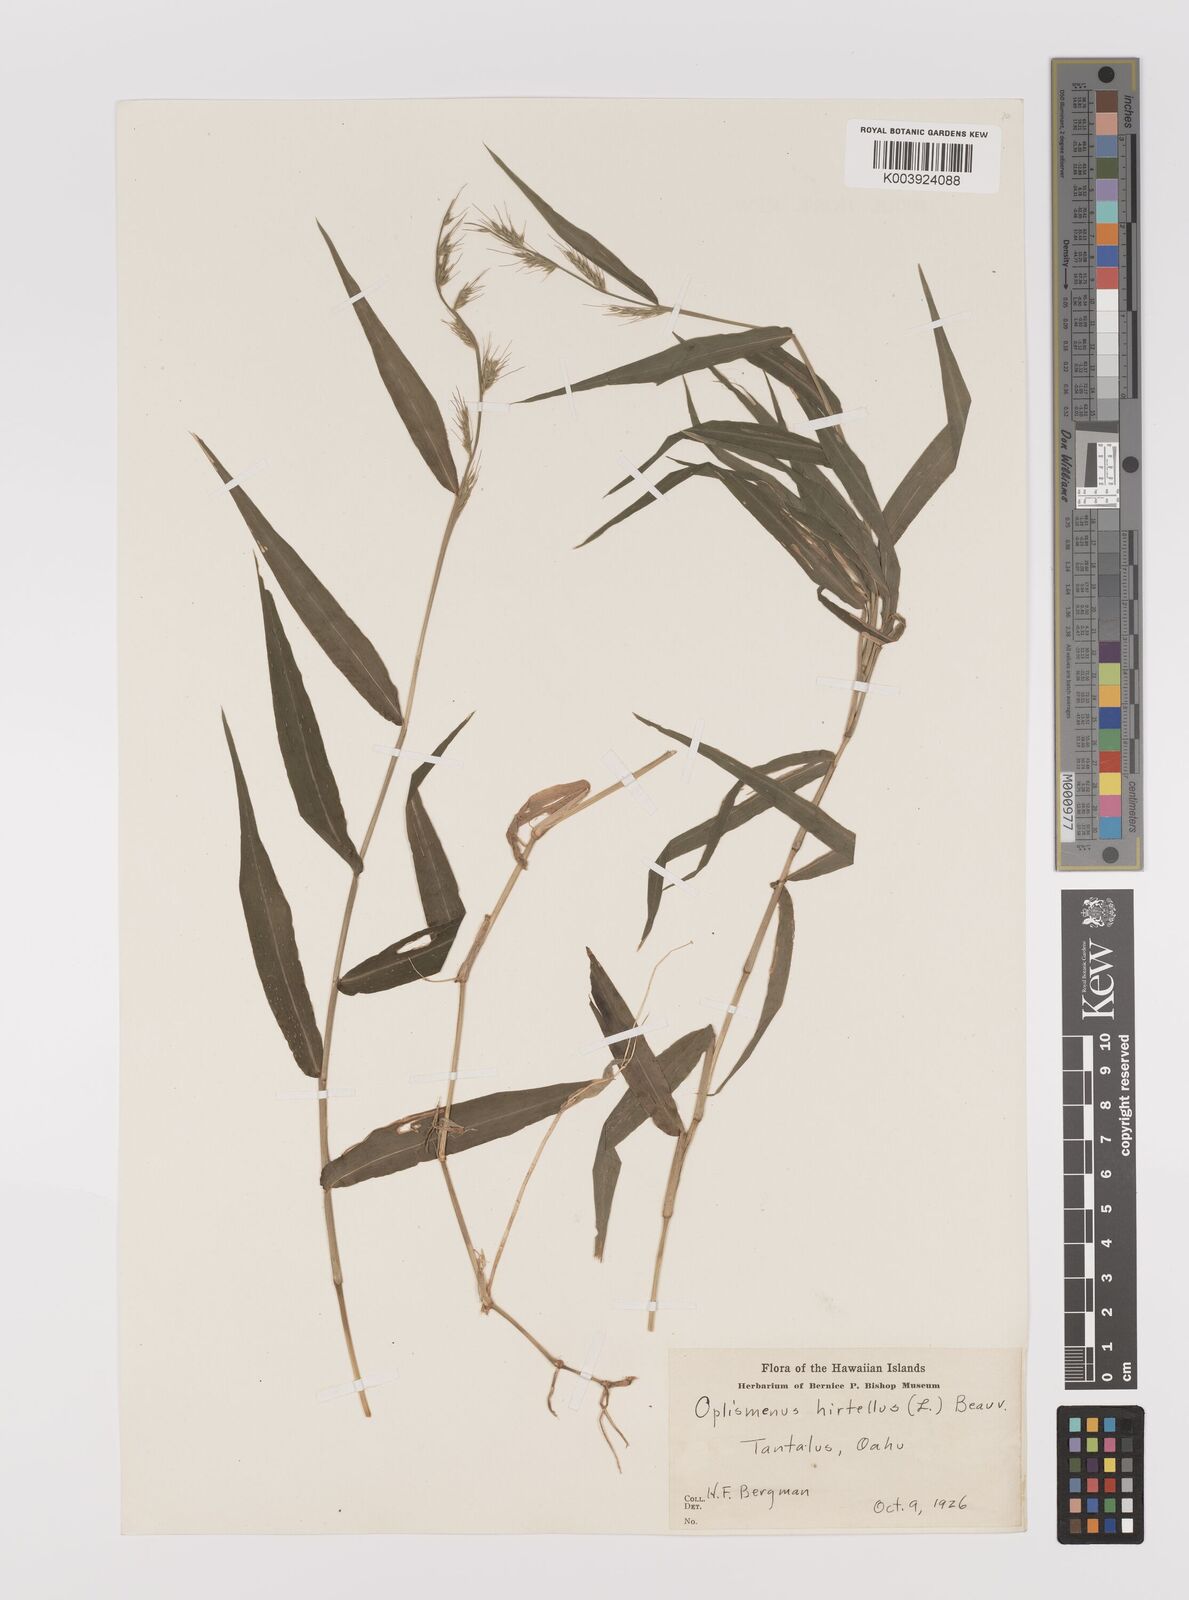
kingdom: Plantae
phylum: Tracheophyta
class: Liliopsida
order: Poales
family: Poaceae
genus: Oplismenus
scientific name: Oplismenus hirtellus
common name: Basketgrass
